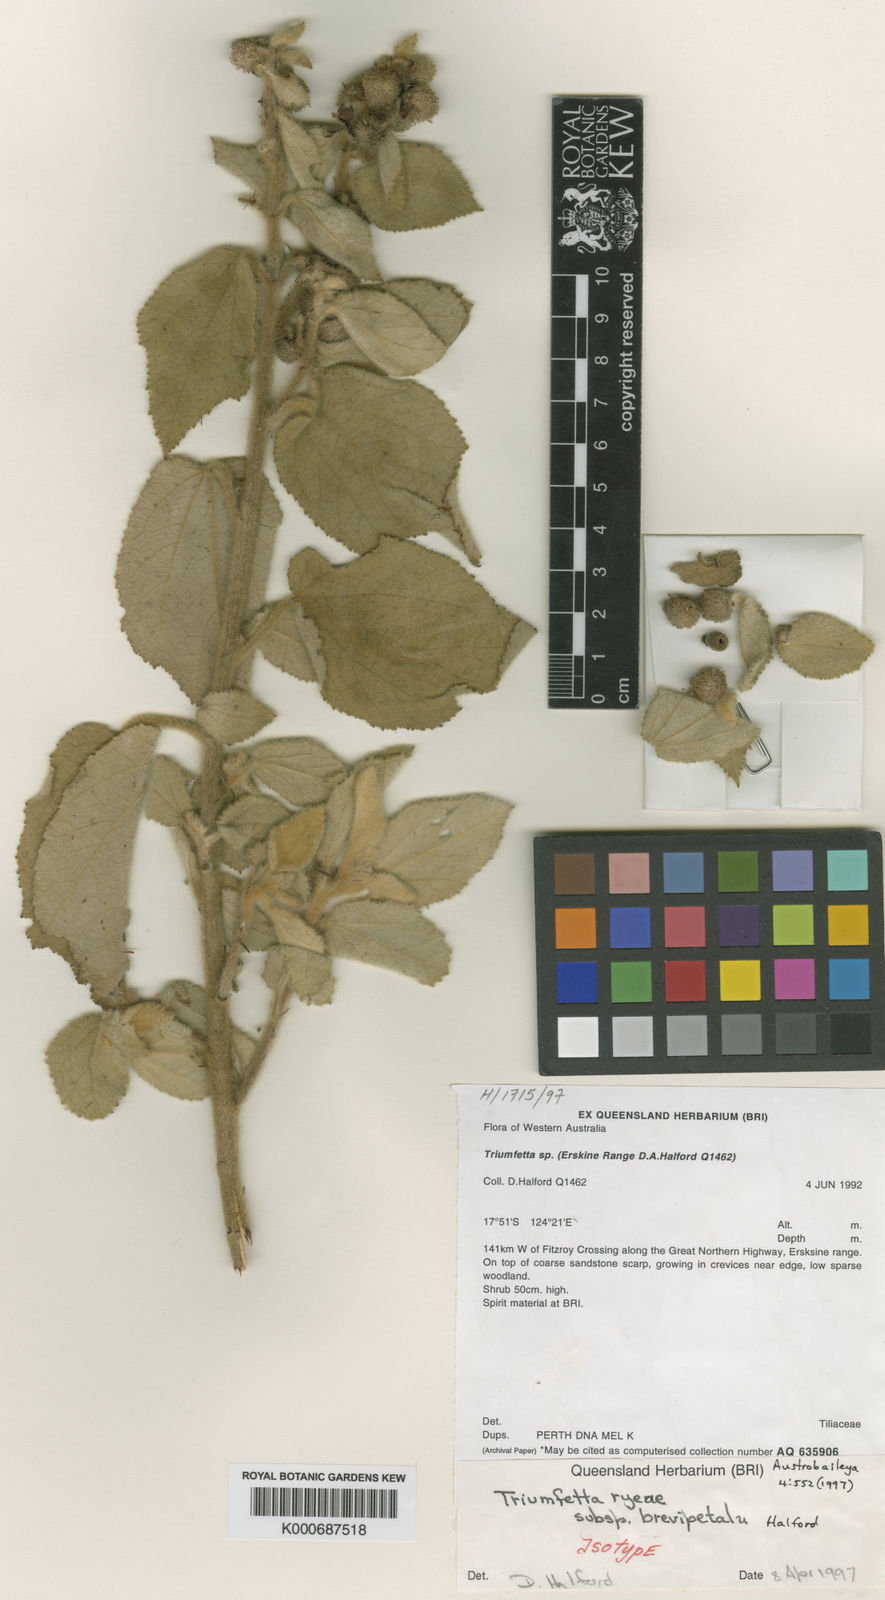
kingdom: Plantae
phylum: Tracheophyta
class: Magnoliopsida
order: Malvales
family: Malvaceae
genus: Triumfetta
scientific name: Triumfetta ryeae
